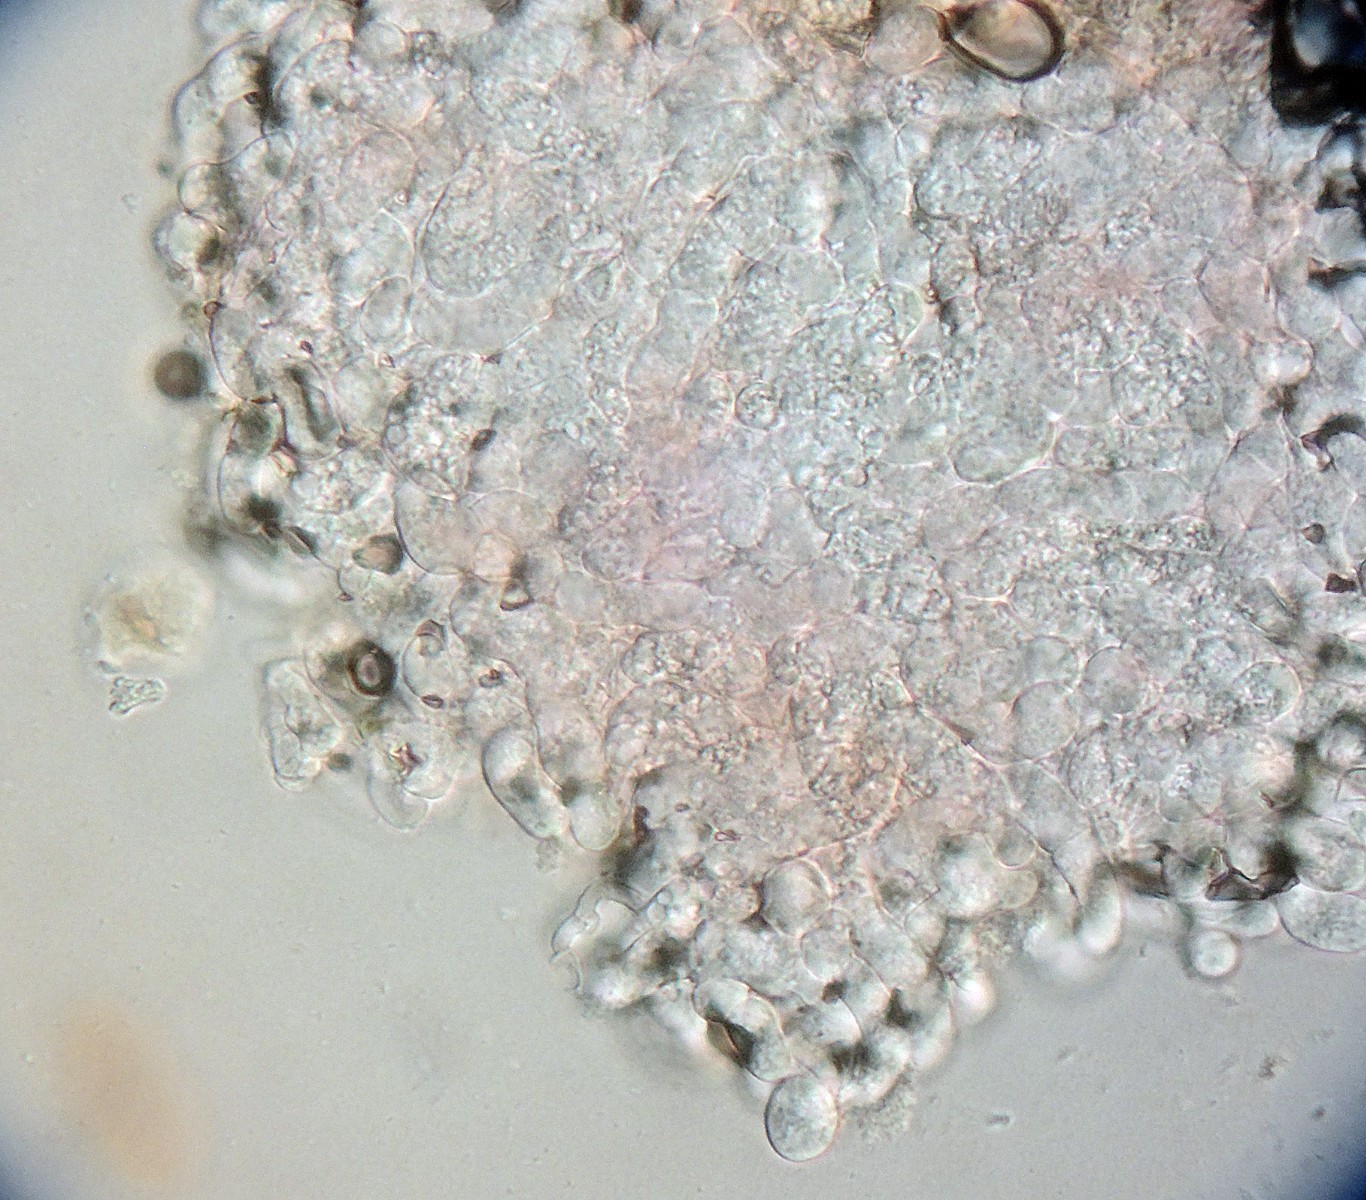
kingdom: Fungi
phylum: Basidiomycota
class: Agaricomycetes
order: Cantharellales
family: Hydnaceae
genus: Burgoa
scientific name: Burgoa angulosa
